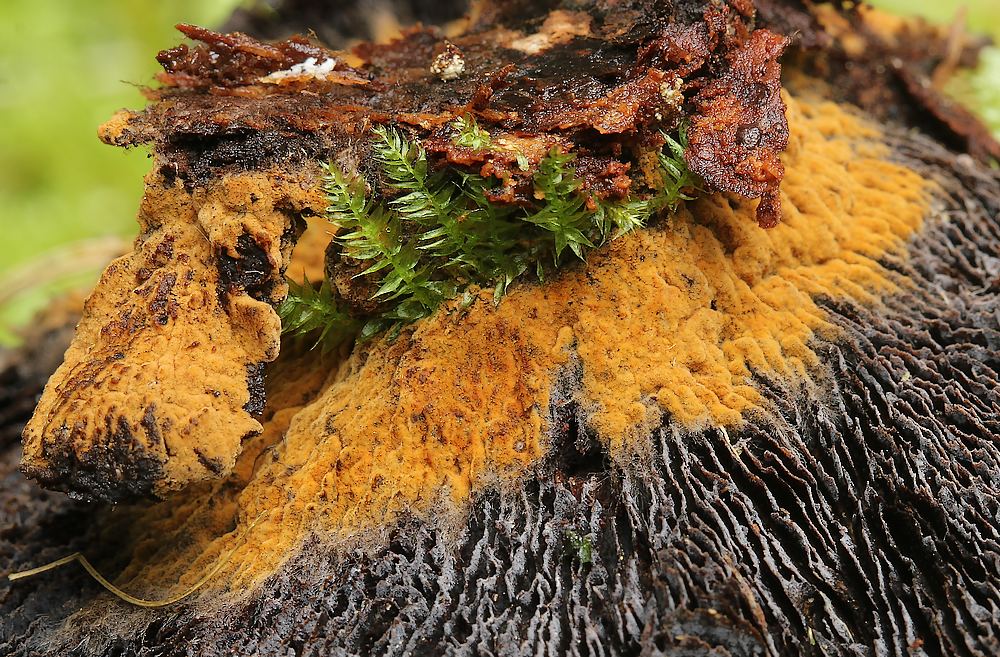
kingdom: Fungi
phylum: Basidiomycota
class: Agaricomycetes
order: Thelephorales
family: Thelephoraceae
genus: Tomentella
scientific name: Tomentella
